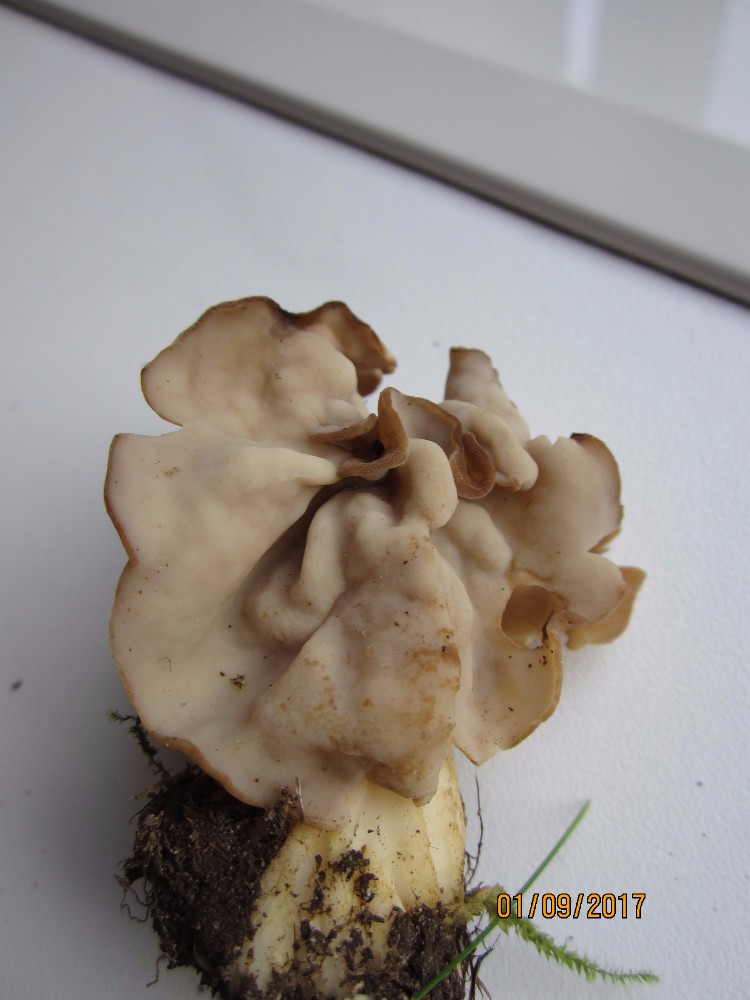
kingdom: Fungi
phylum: Ascomycota
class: Pezizomycetes
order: Pezizales
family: Helvellaceae
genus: Helvella
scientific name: Helvella crispa
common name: kruset foldhat
